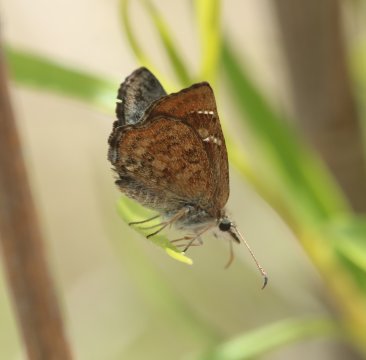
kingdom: Animalia
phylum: Arthropoda
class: Insecta
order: Lepidoptera
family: Hesperiidae
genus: Systasea
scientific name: Systasea microsticta
